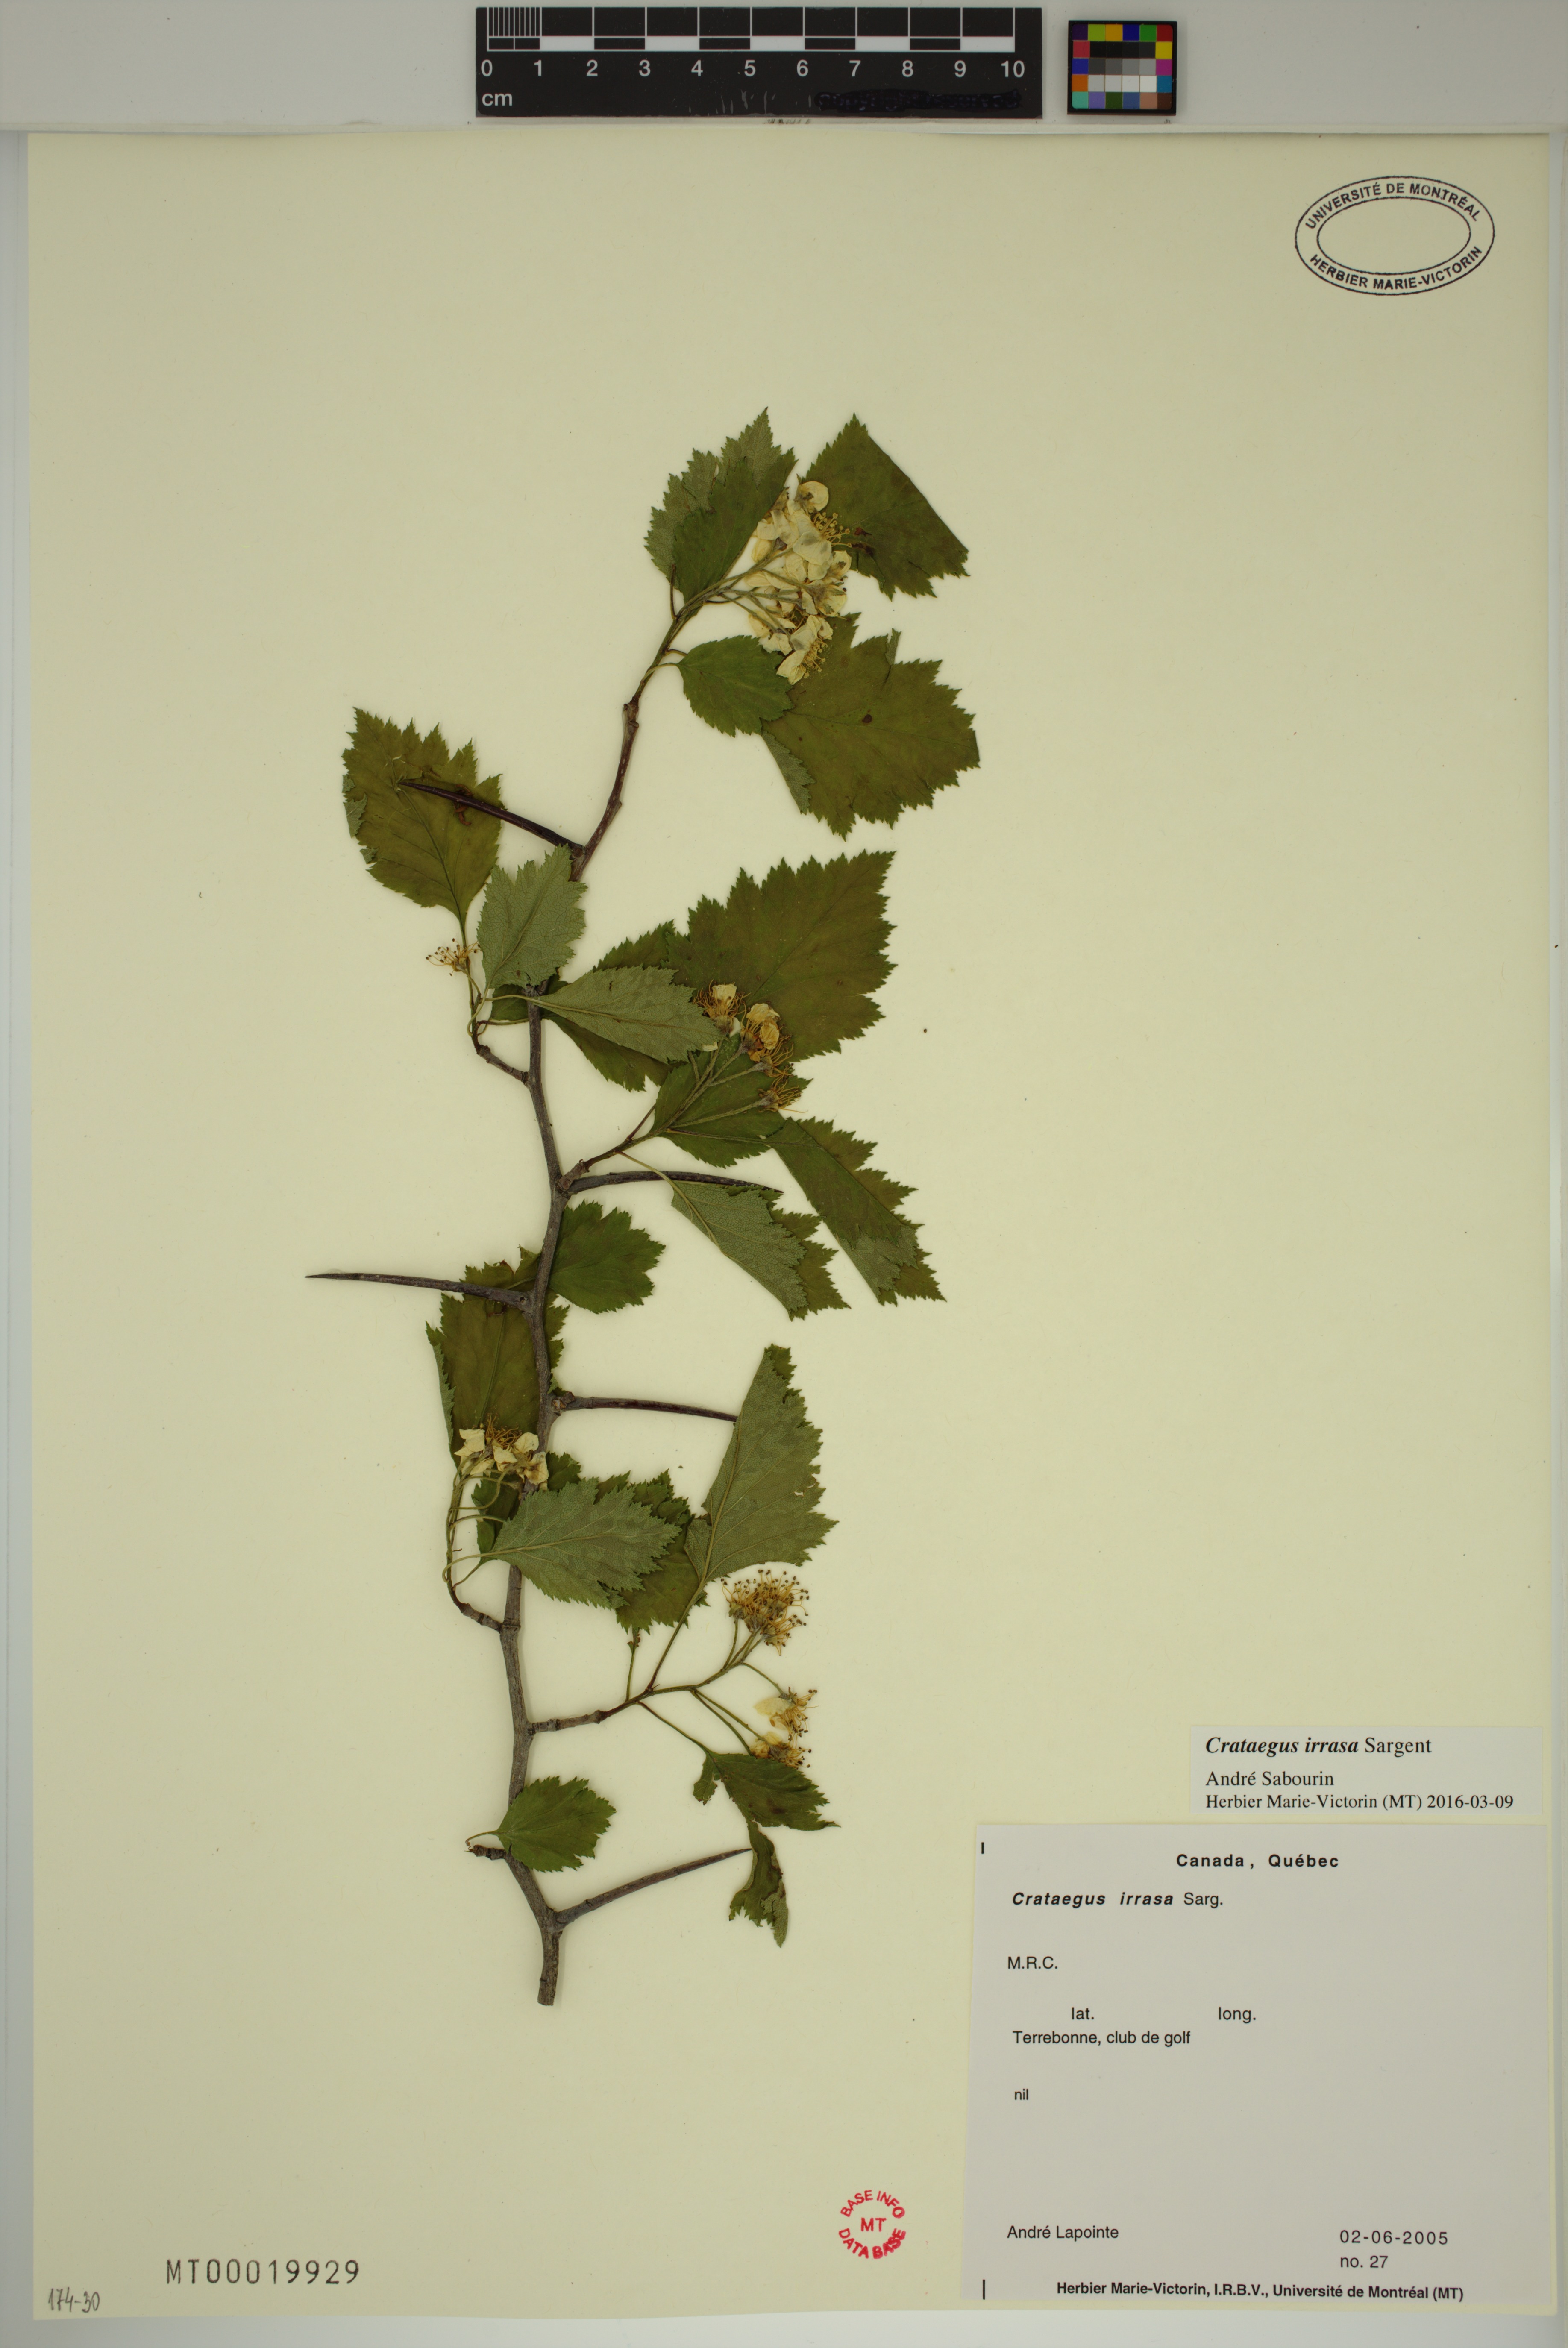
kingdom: Plantae
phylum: Tracheophyta
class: Magnoliopsida
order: Rosales
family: Rosaceae
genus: Crataegus
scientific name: Crataegus irrasa
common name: Unshorn hawthorn
